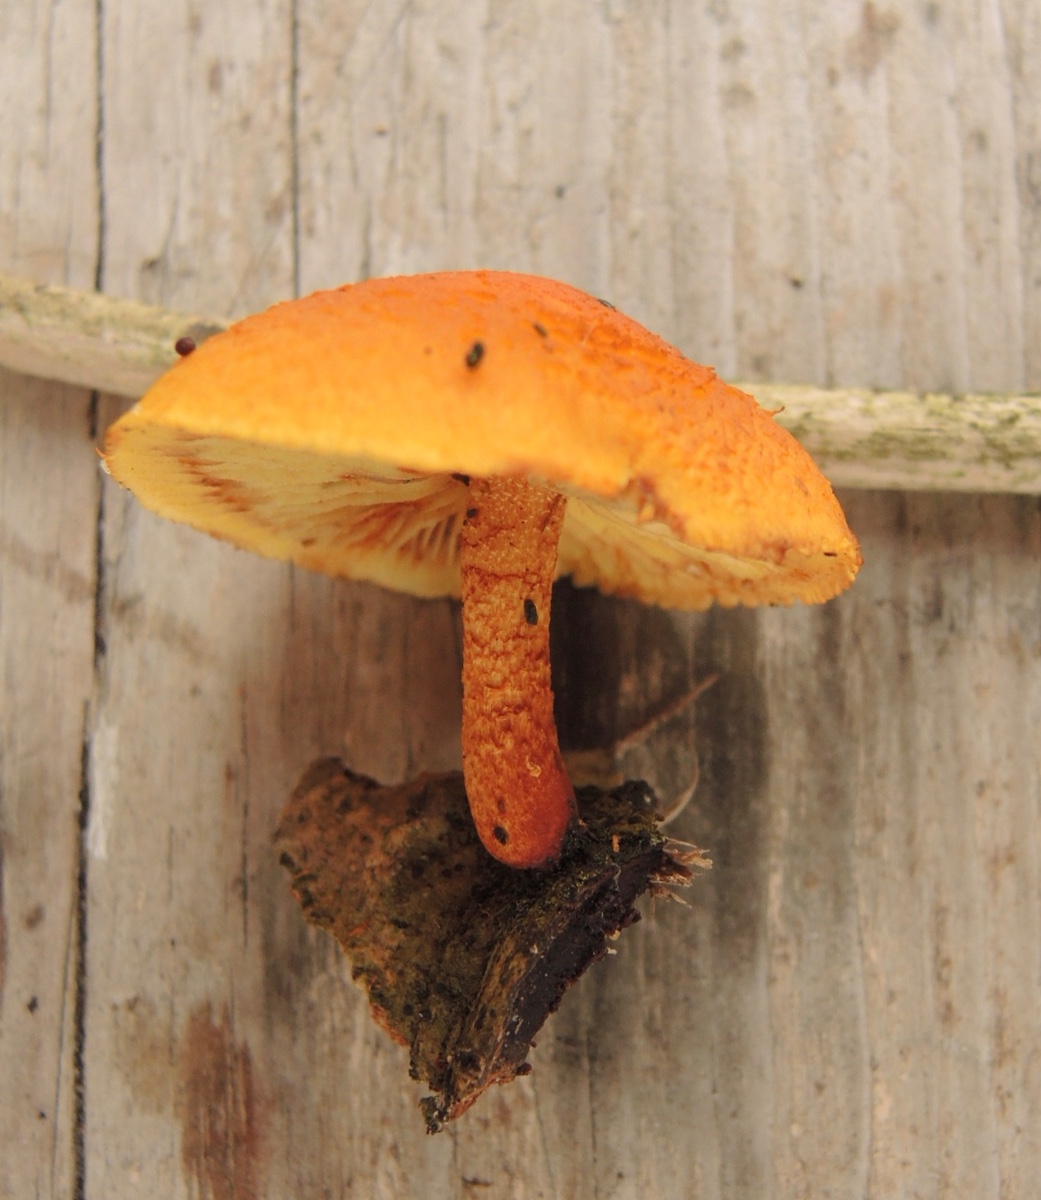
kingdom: Fungi
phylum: Basidiomycota
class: Agaricomycetes
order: Agaricales
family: Strophariaceae
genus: Pholiota
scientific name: Pholiota tuberculosa
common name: finskællet skælhat
